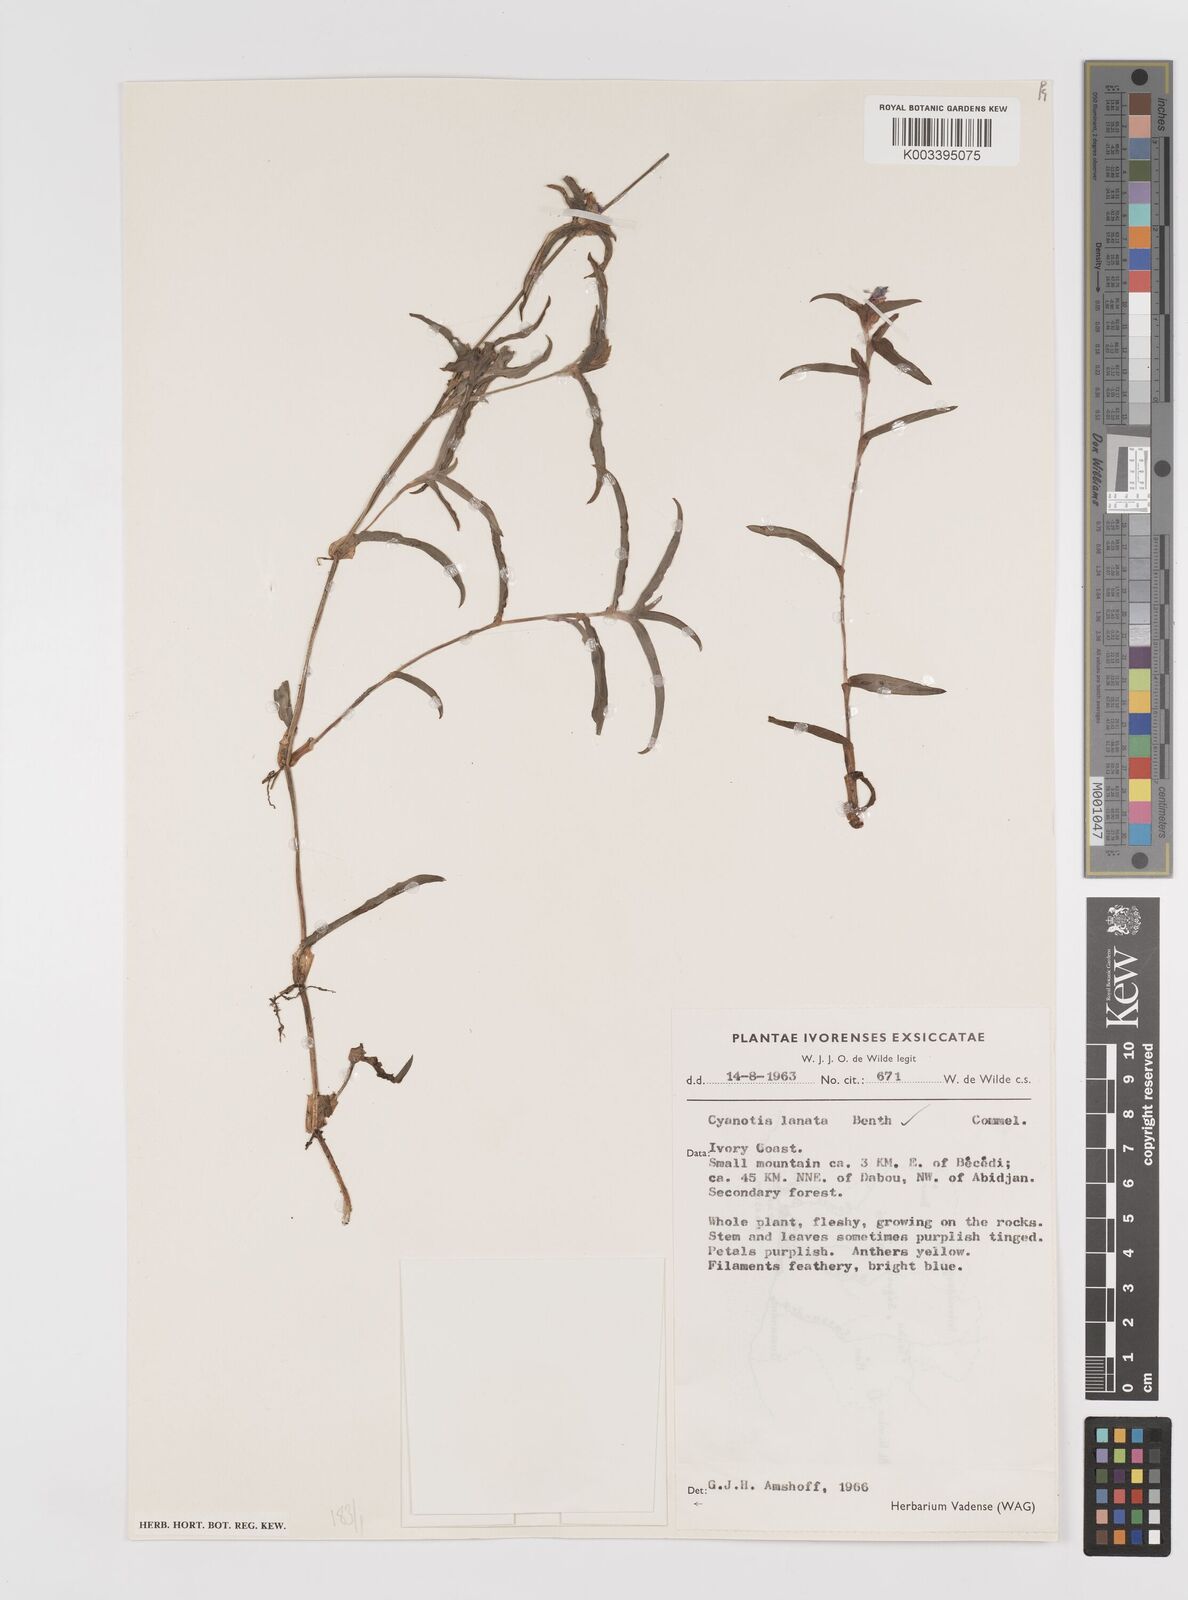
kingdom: Plantae
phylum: Tracheophyta
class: Liliopsida
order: Commelinales
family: Commelinaceae
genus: Cyanotis
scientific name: Cyanotis lanata
